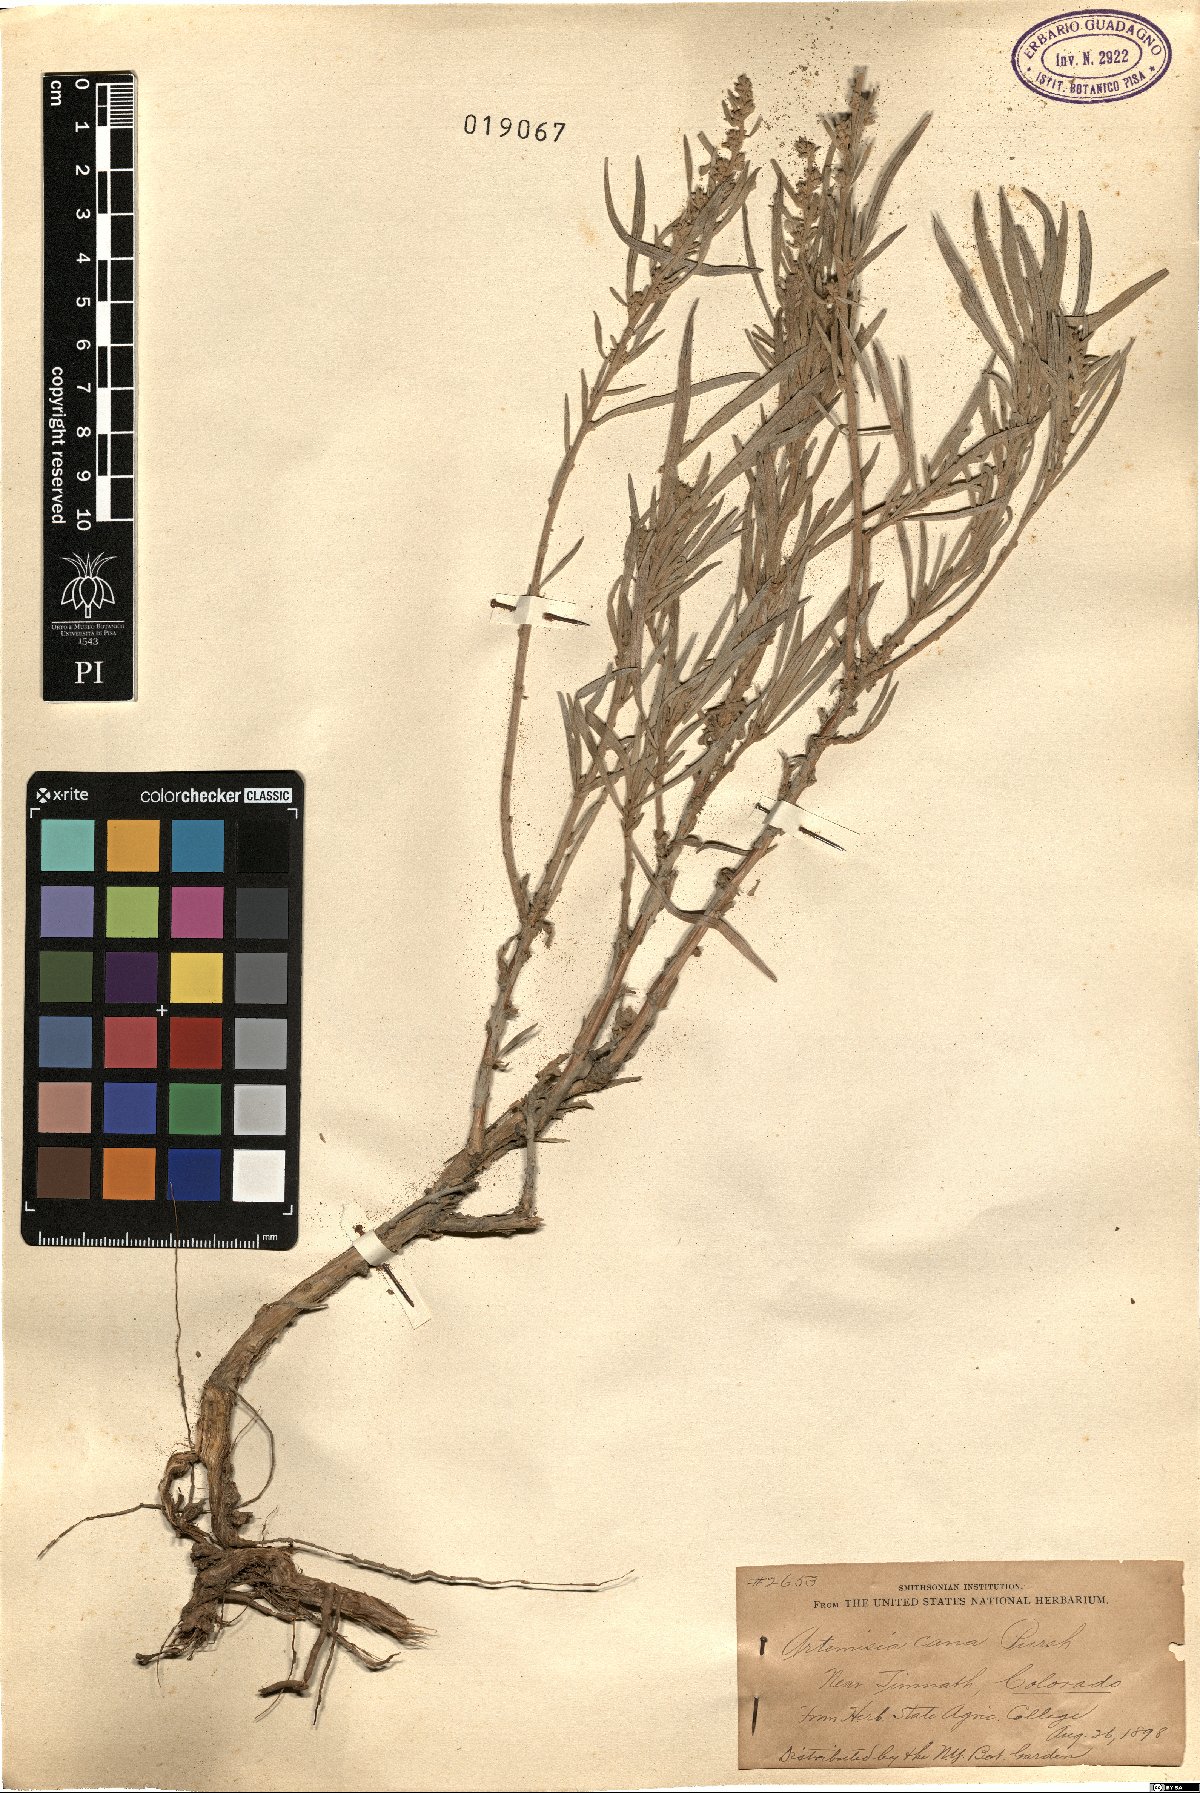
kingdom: Plantae
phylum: Tracheophyta
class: Magnoliopsida
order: Asterales
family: Asteraceae
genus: Artemisia
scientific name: Artemisia cana
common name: Silver sagebrush
